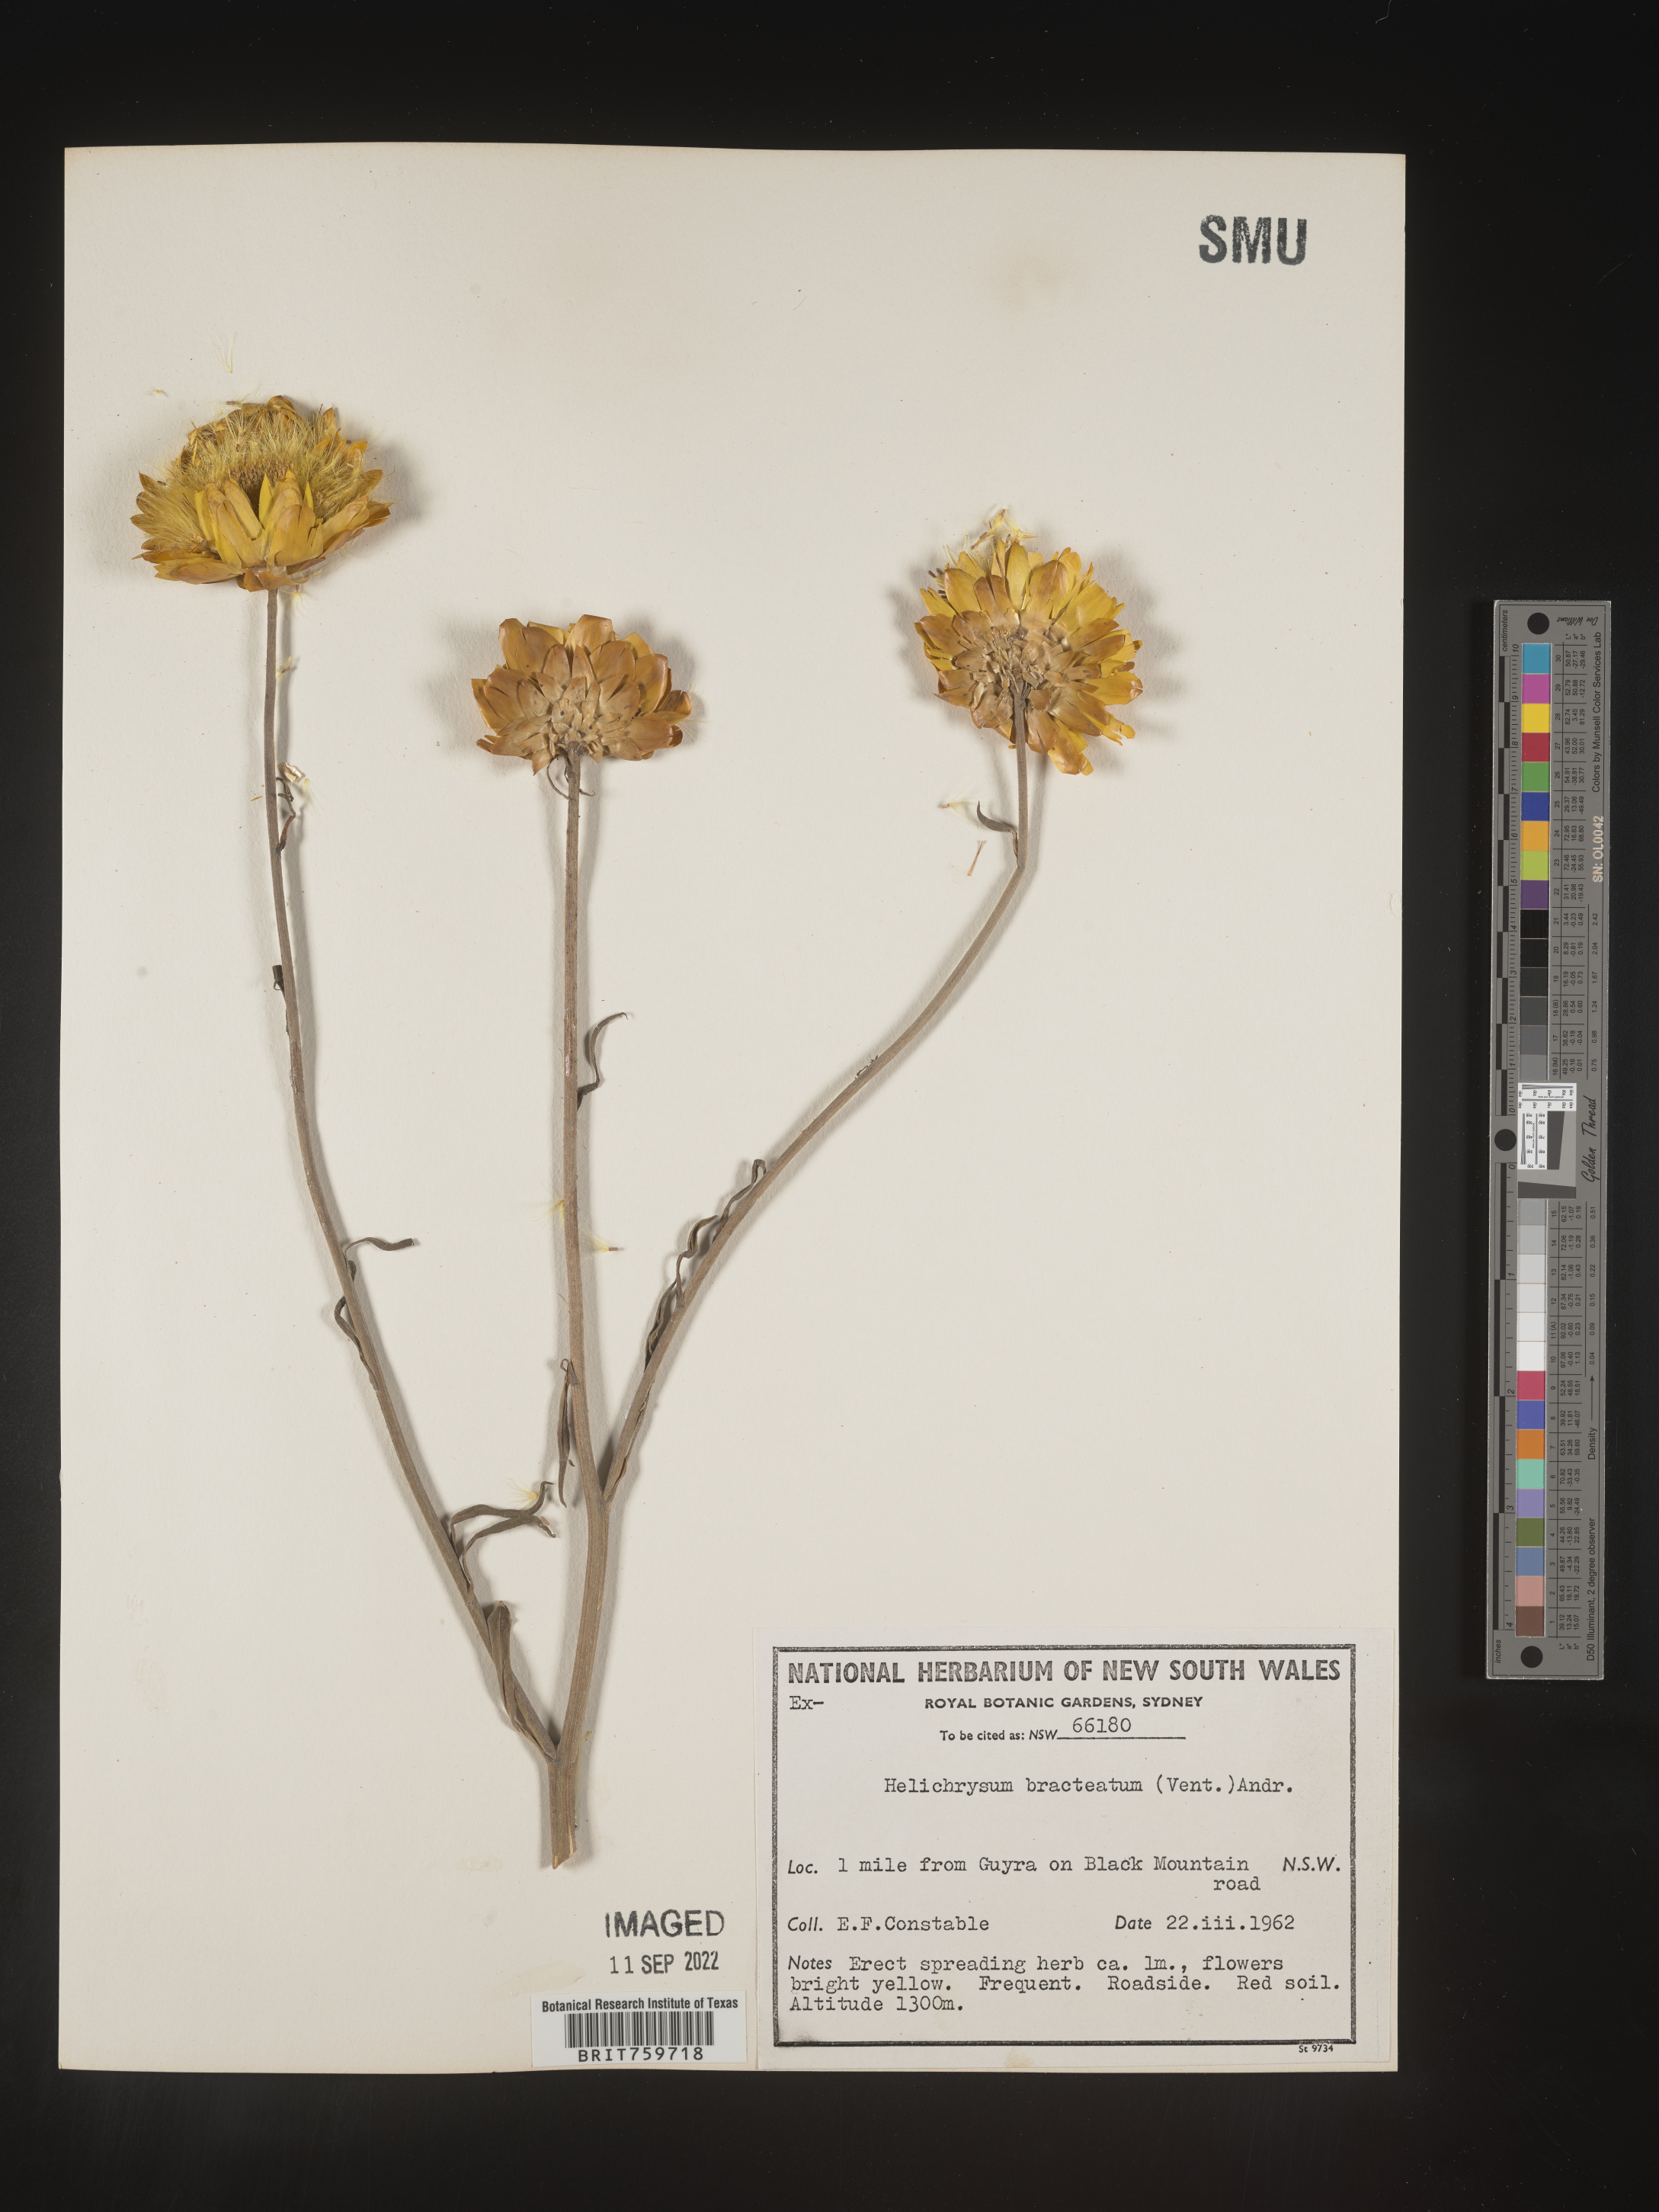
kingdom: Plantae
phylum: Tracheophyta
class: Magnoliopsida
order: Asterales
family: Asteraceae
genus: Helichrysum
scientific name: Helichrysum
